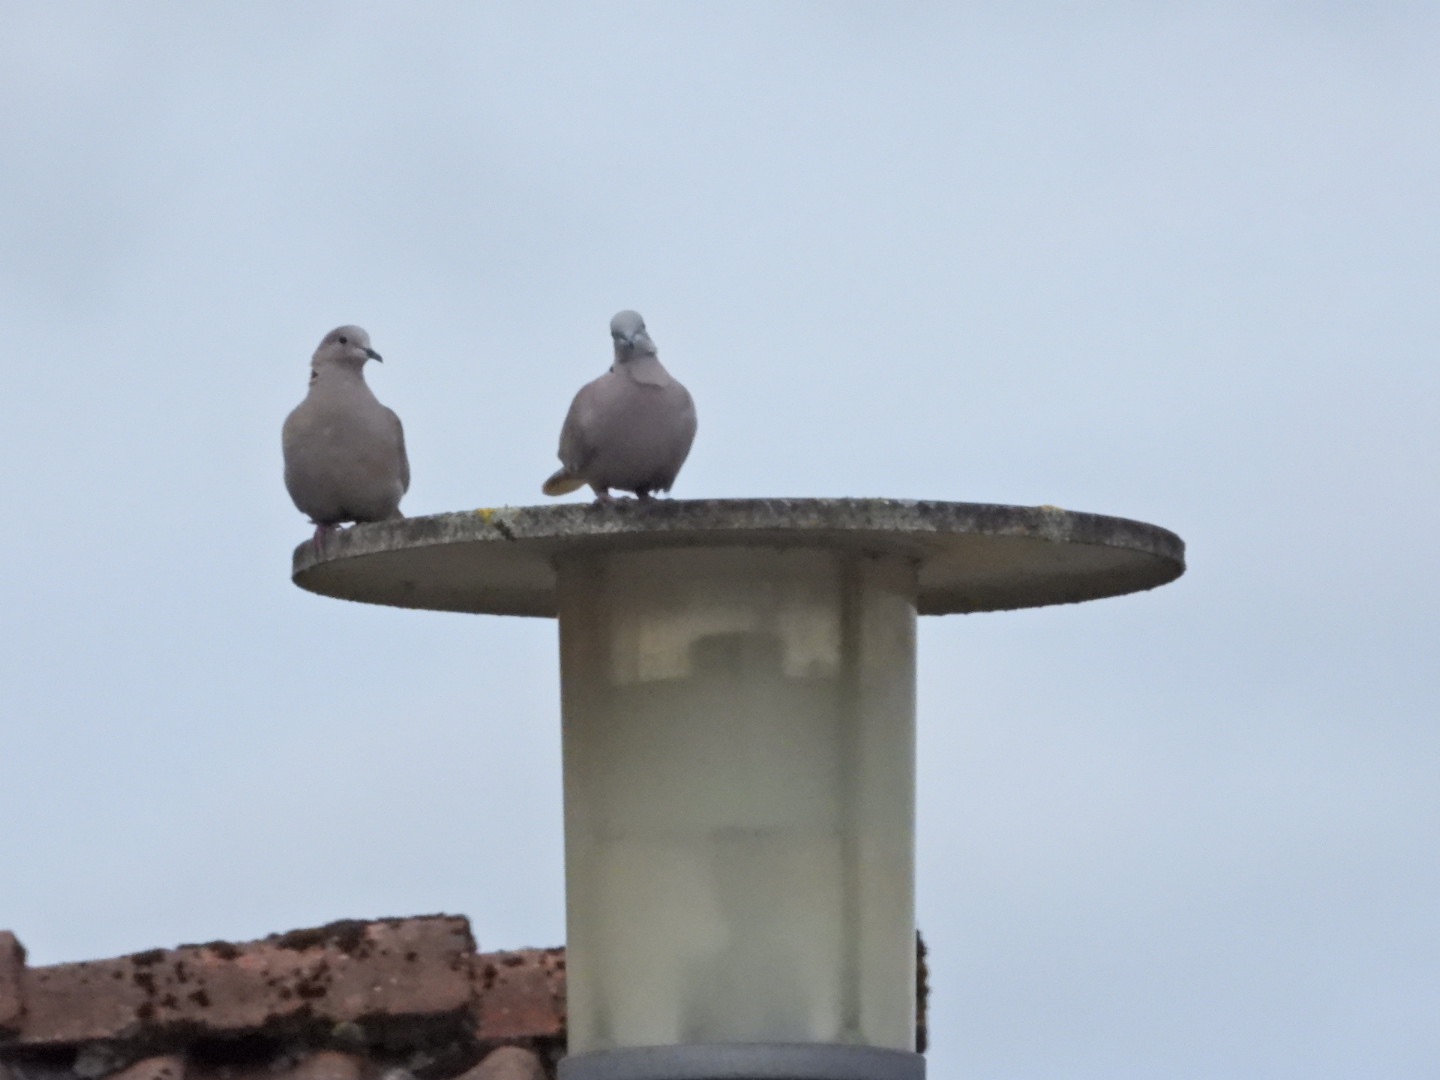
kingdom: Animalia
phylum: Chordata
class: Aves
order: Columbiformes
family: Columbidae
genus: Streptopelia
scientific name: Streptopelia decaocto
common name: Tyrkerdue
